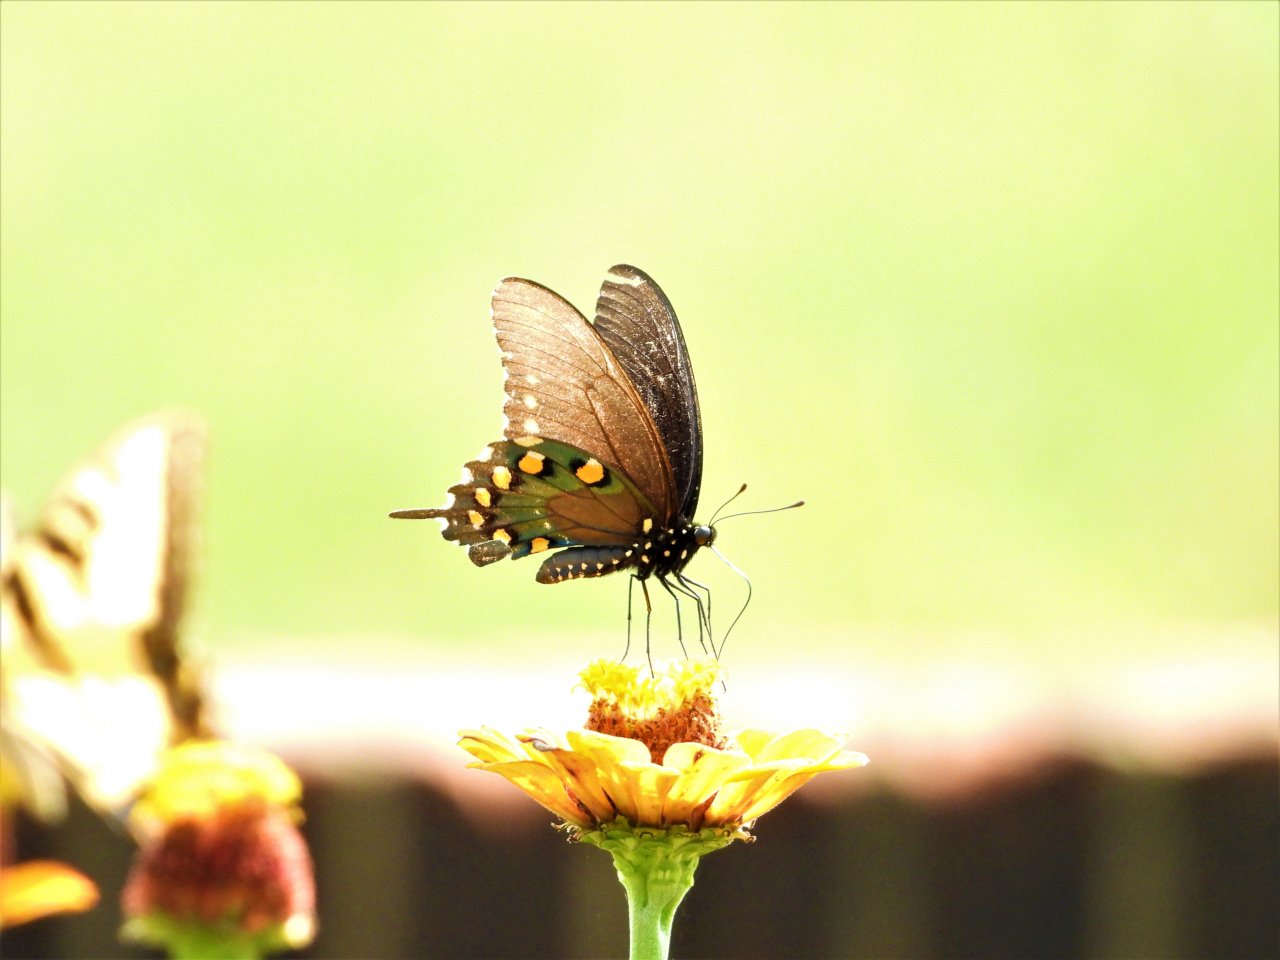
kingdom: Animalia
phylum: Arthropoda
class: Insecta
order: Lepidoptera
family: Papilionidae
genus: Battus
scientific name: Battus philenor
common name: Pipevine Swallowtail
